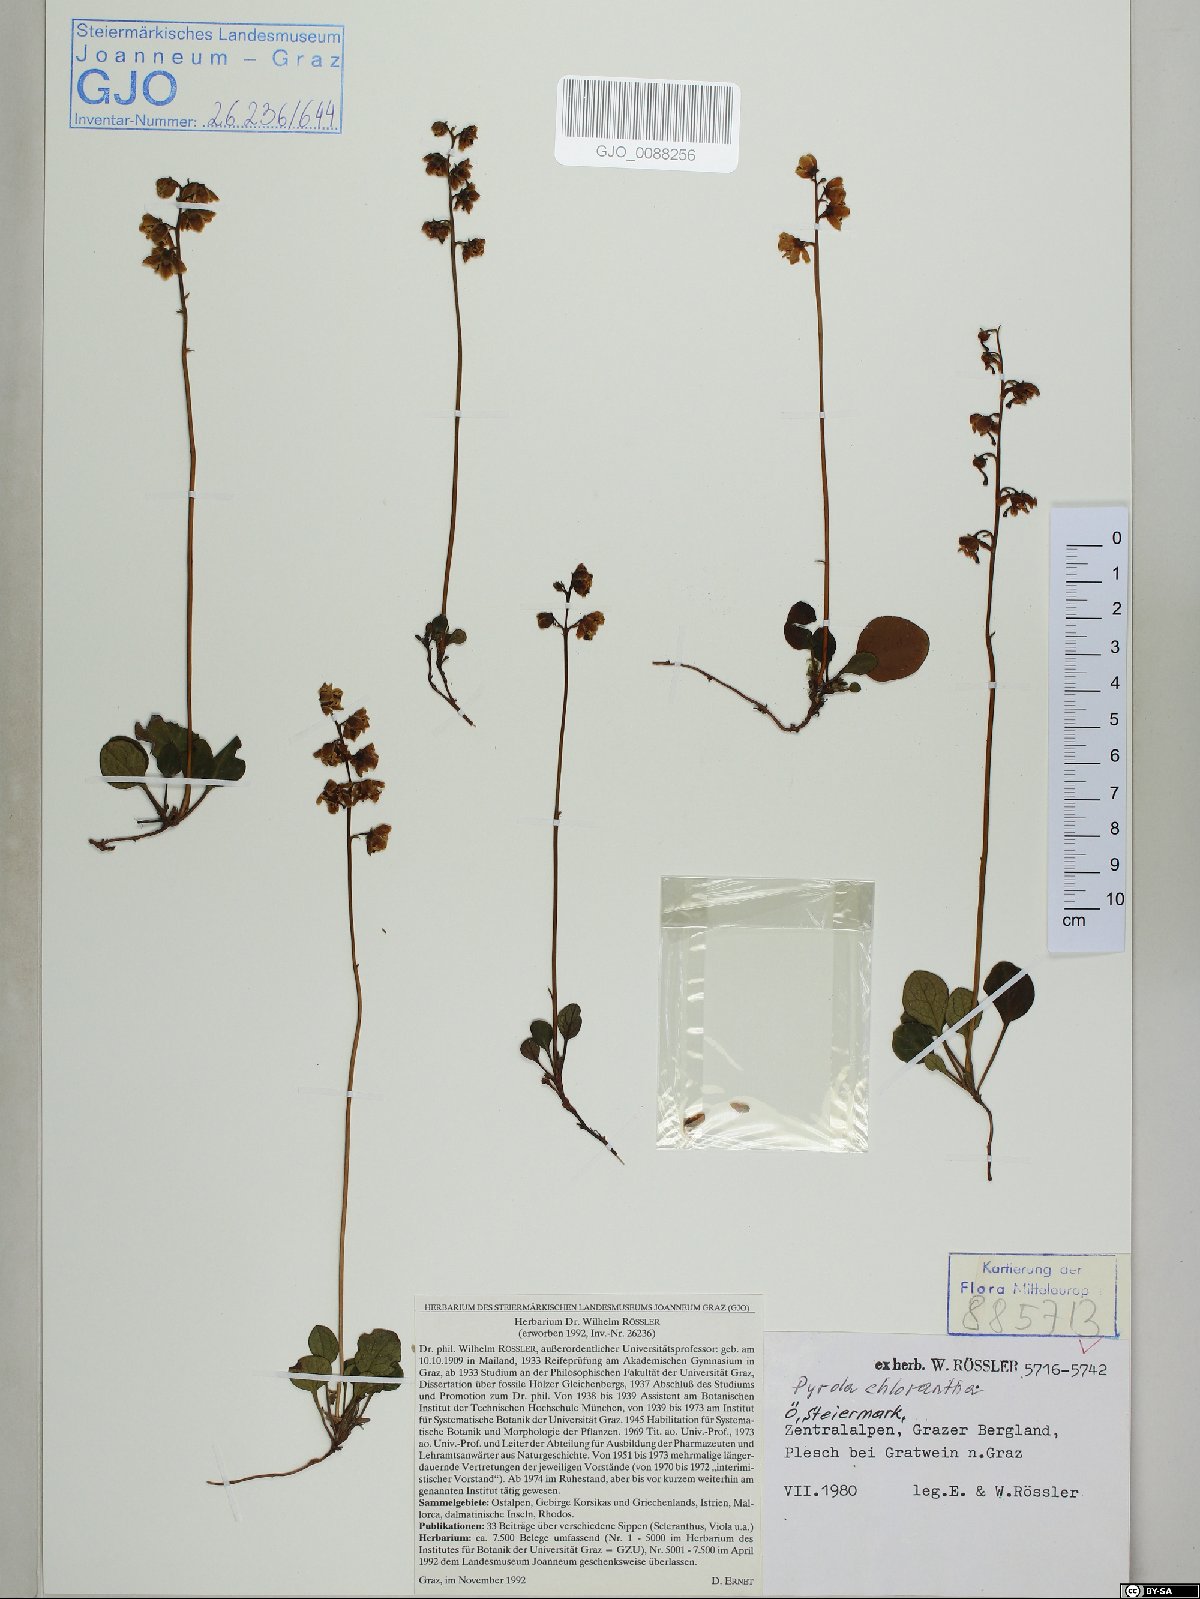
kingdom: Plantae
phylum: Tracheophyta
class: Magnoliopsida
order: Ericales
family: Ericaceae
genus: Pyrola
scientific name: Pyrola chlorantha
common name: Green wintergreen
